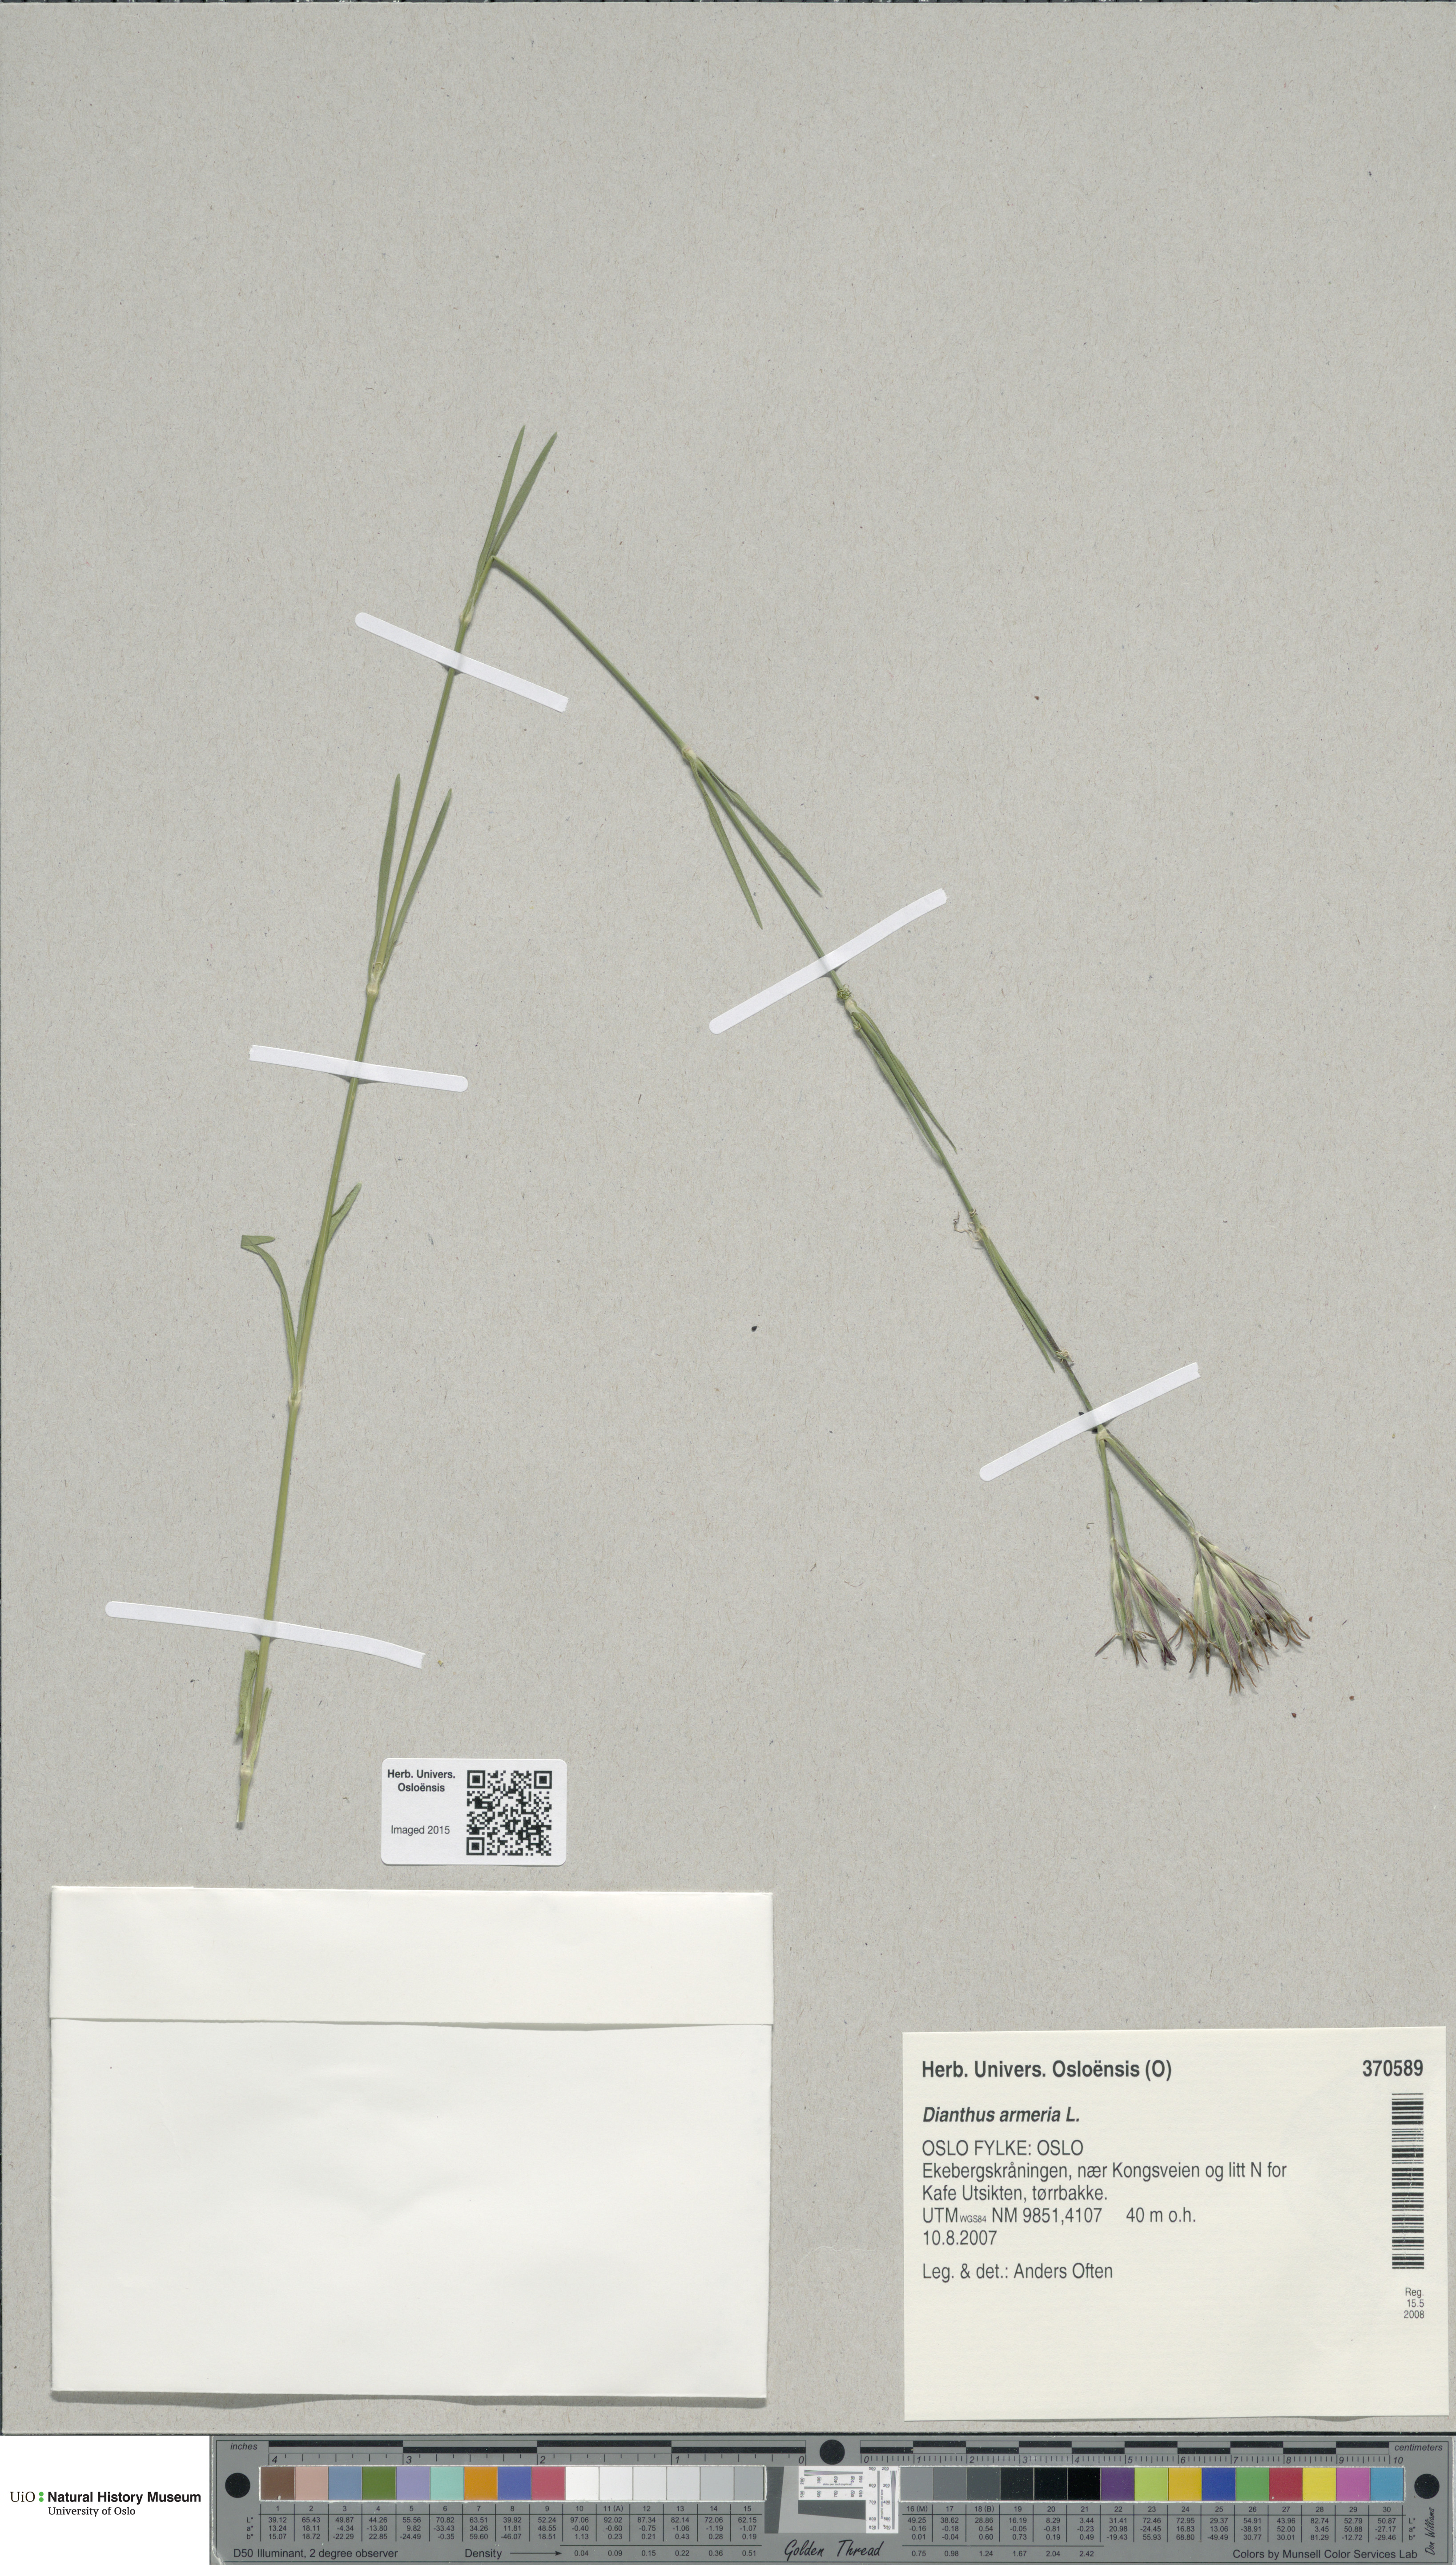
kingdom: Plantae
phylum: Tracheophyta
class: Magnoliopsida
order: Caryophyllales
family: Caryophyllaceae
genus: Dianthus
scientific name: Dianthus armeria
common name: Deptford pink
